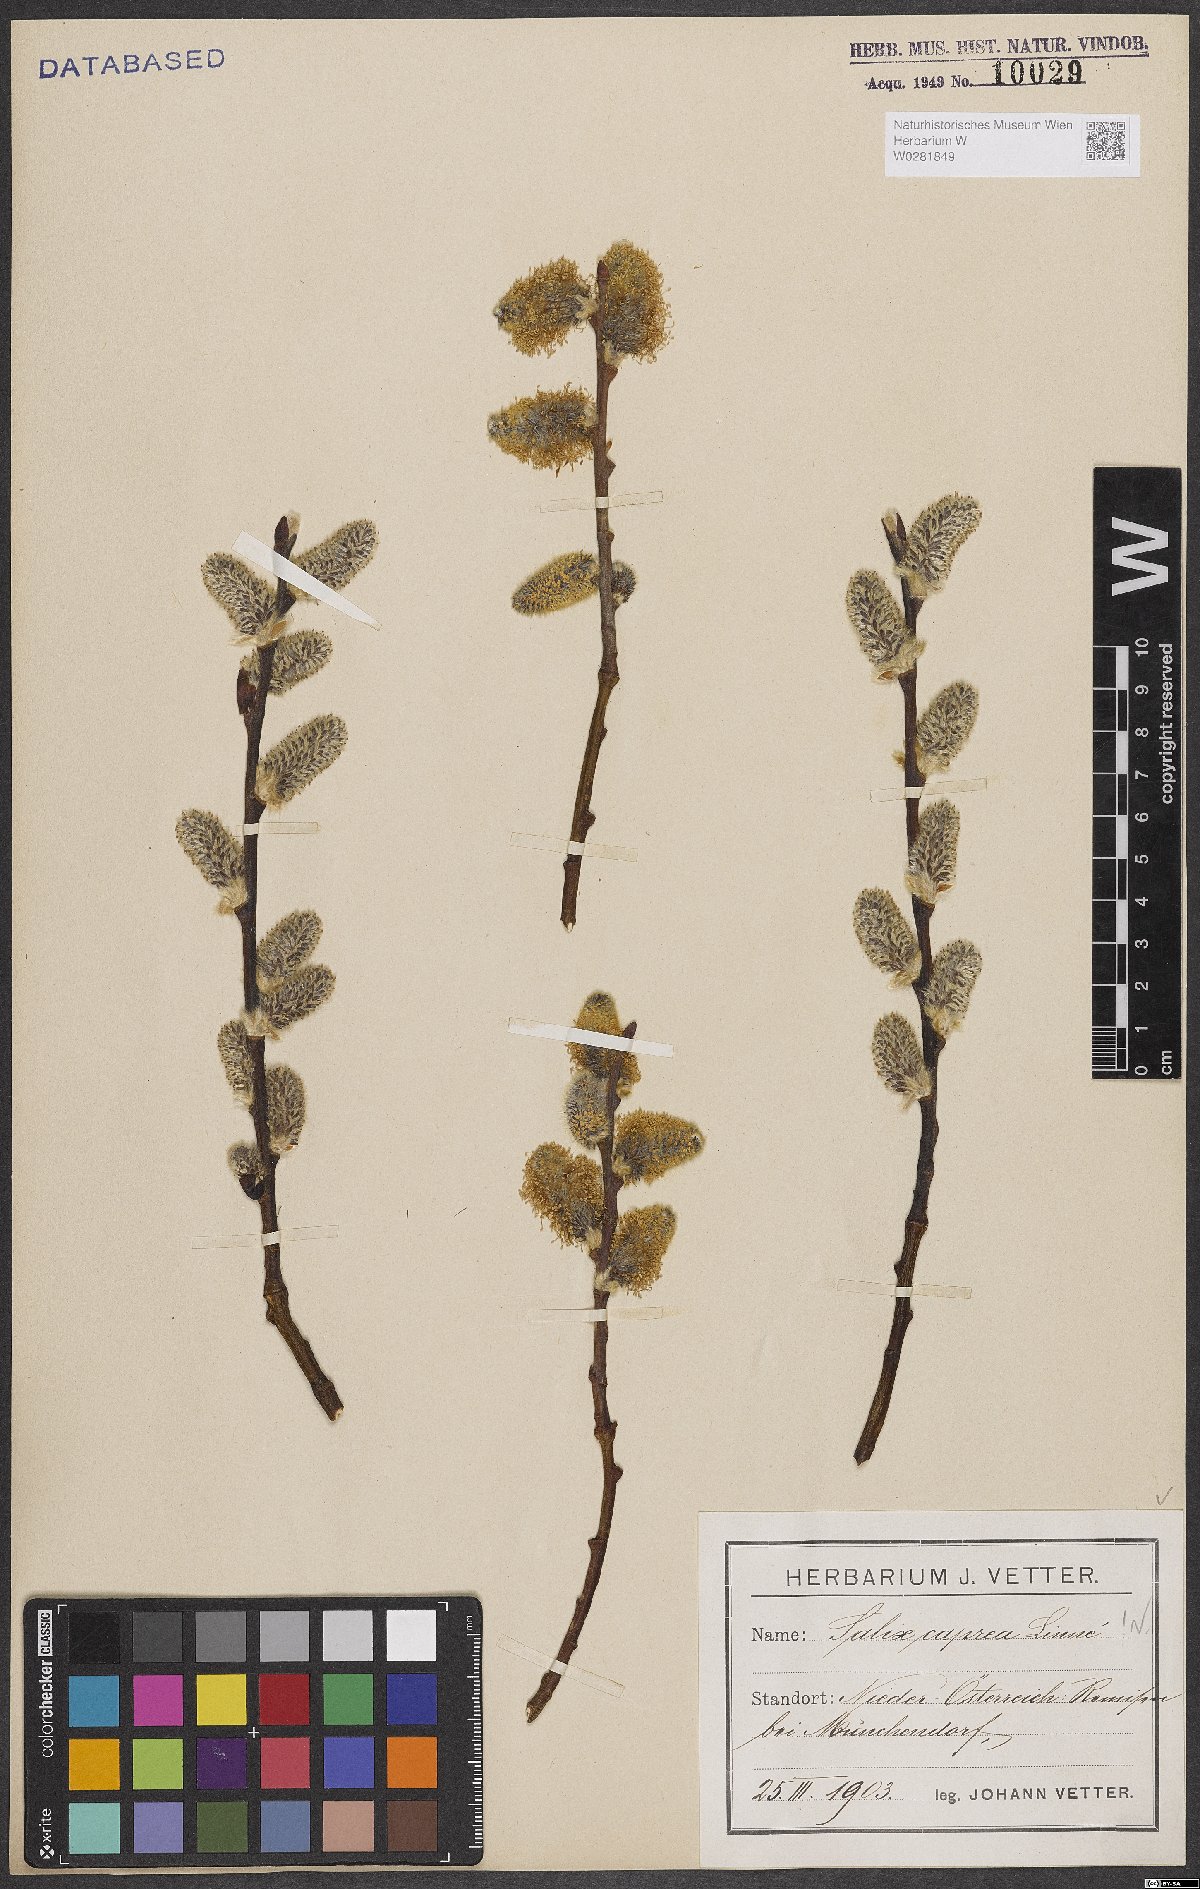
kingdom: Plantae
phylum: Tracheophyta
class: Magnoliopsida
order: Malpighiales
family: Salicaceae
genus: Salix
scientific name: Salix caprea
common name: Goat willow
